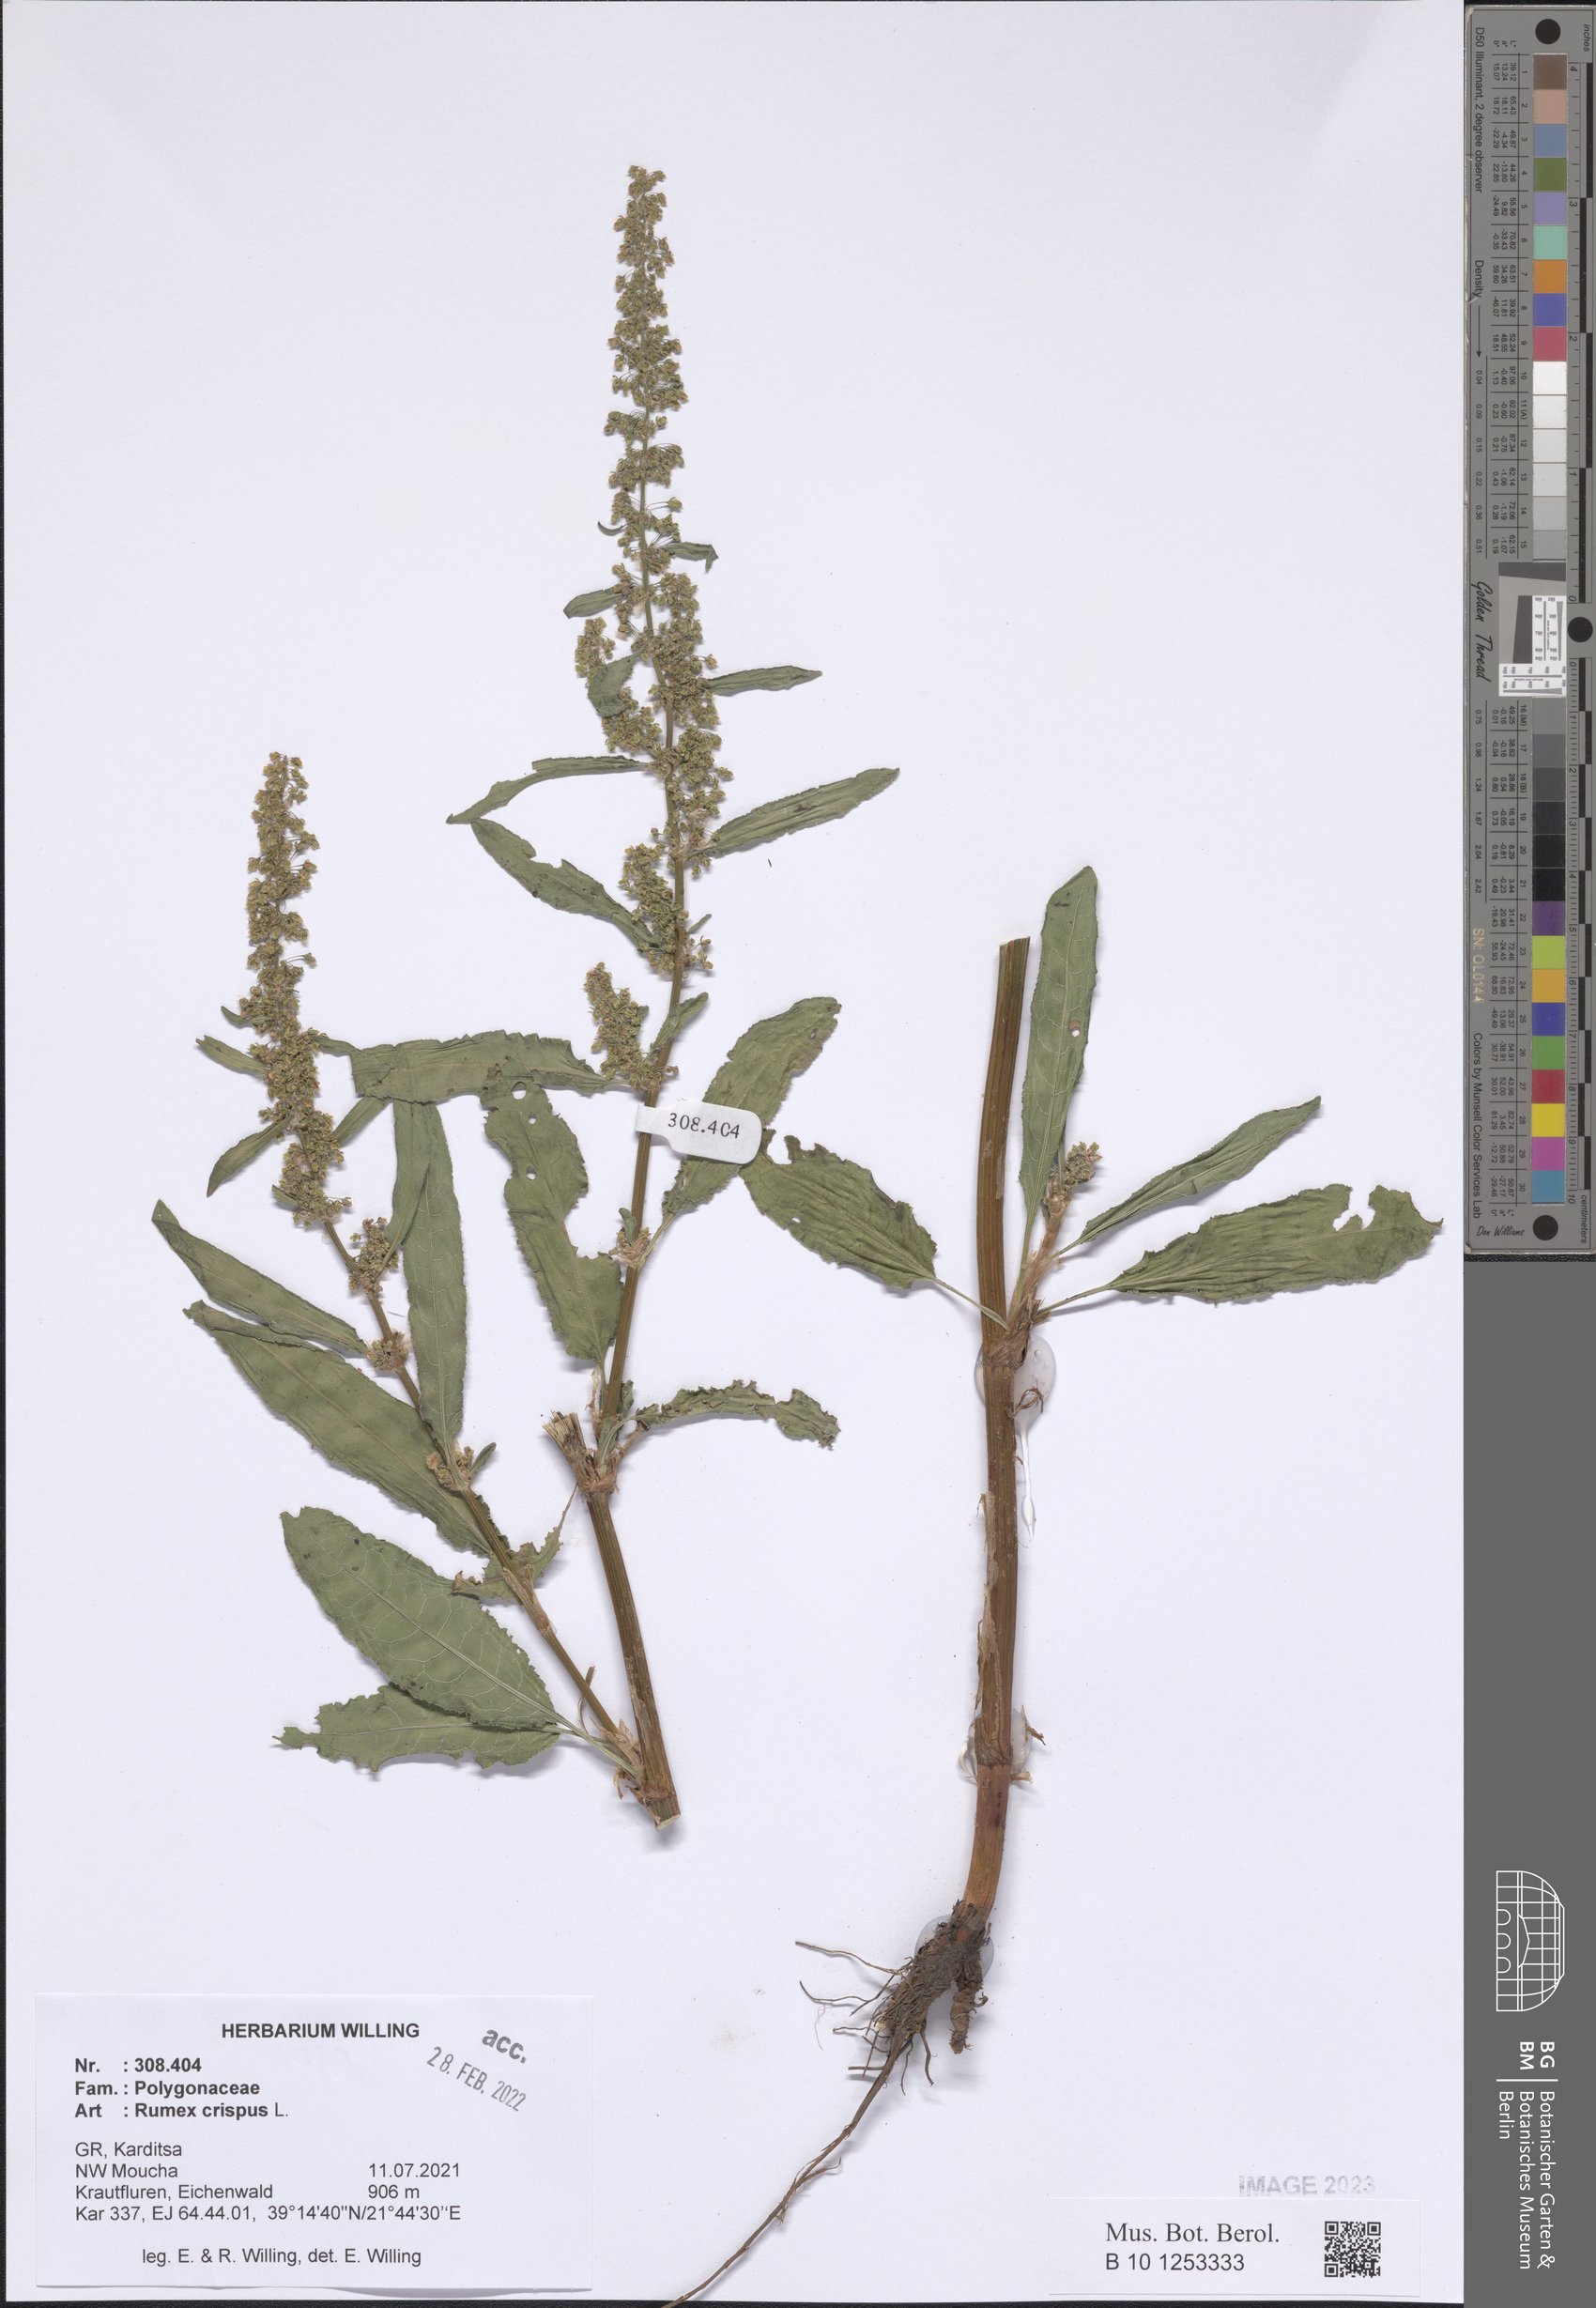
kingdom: Plantae
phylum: Tracheophyta
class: Magnoliopsida
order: Caryophyllales
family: Polygonaceae
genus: Rumex
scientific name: Rumex crispus
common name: Curled dock
